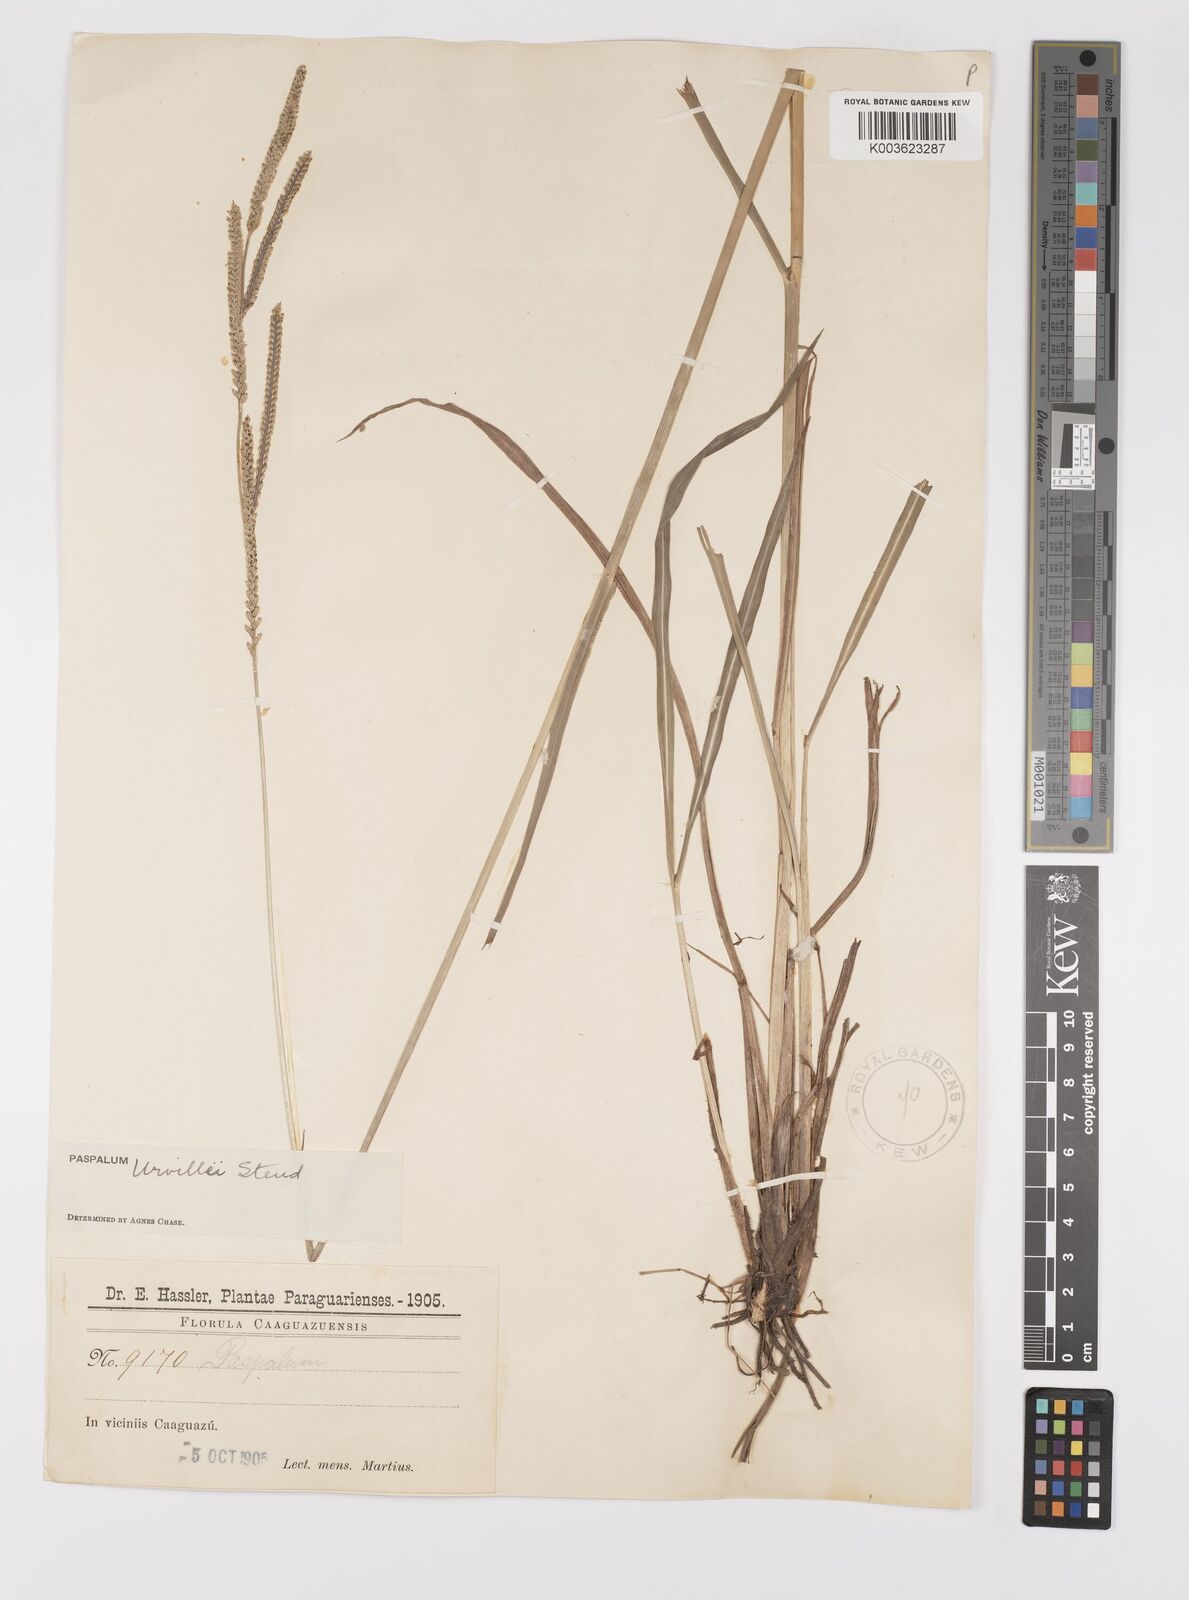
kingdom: Plantae
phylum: Tracheophyta
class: Liliopsida
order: Poales
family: Poaceae
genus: Paspalum
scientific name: Paspalum urvillei
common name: Vasey's grass
